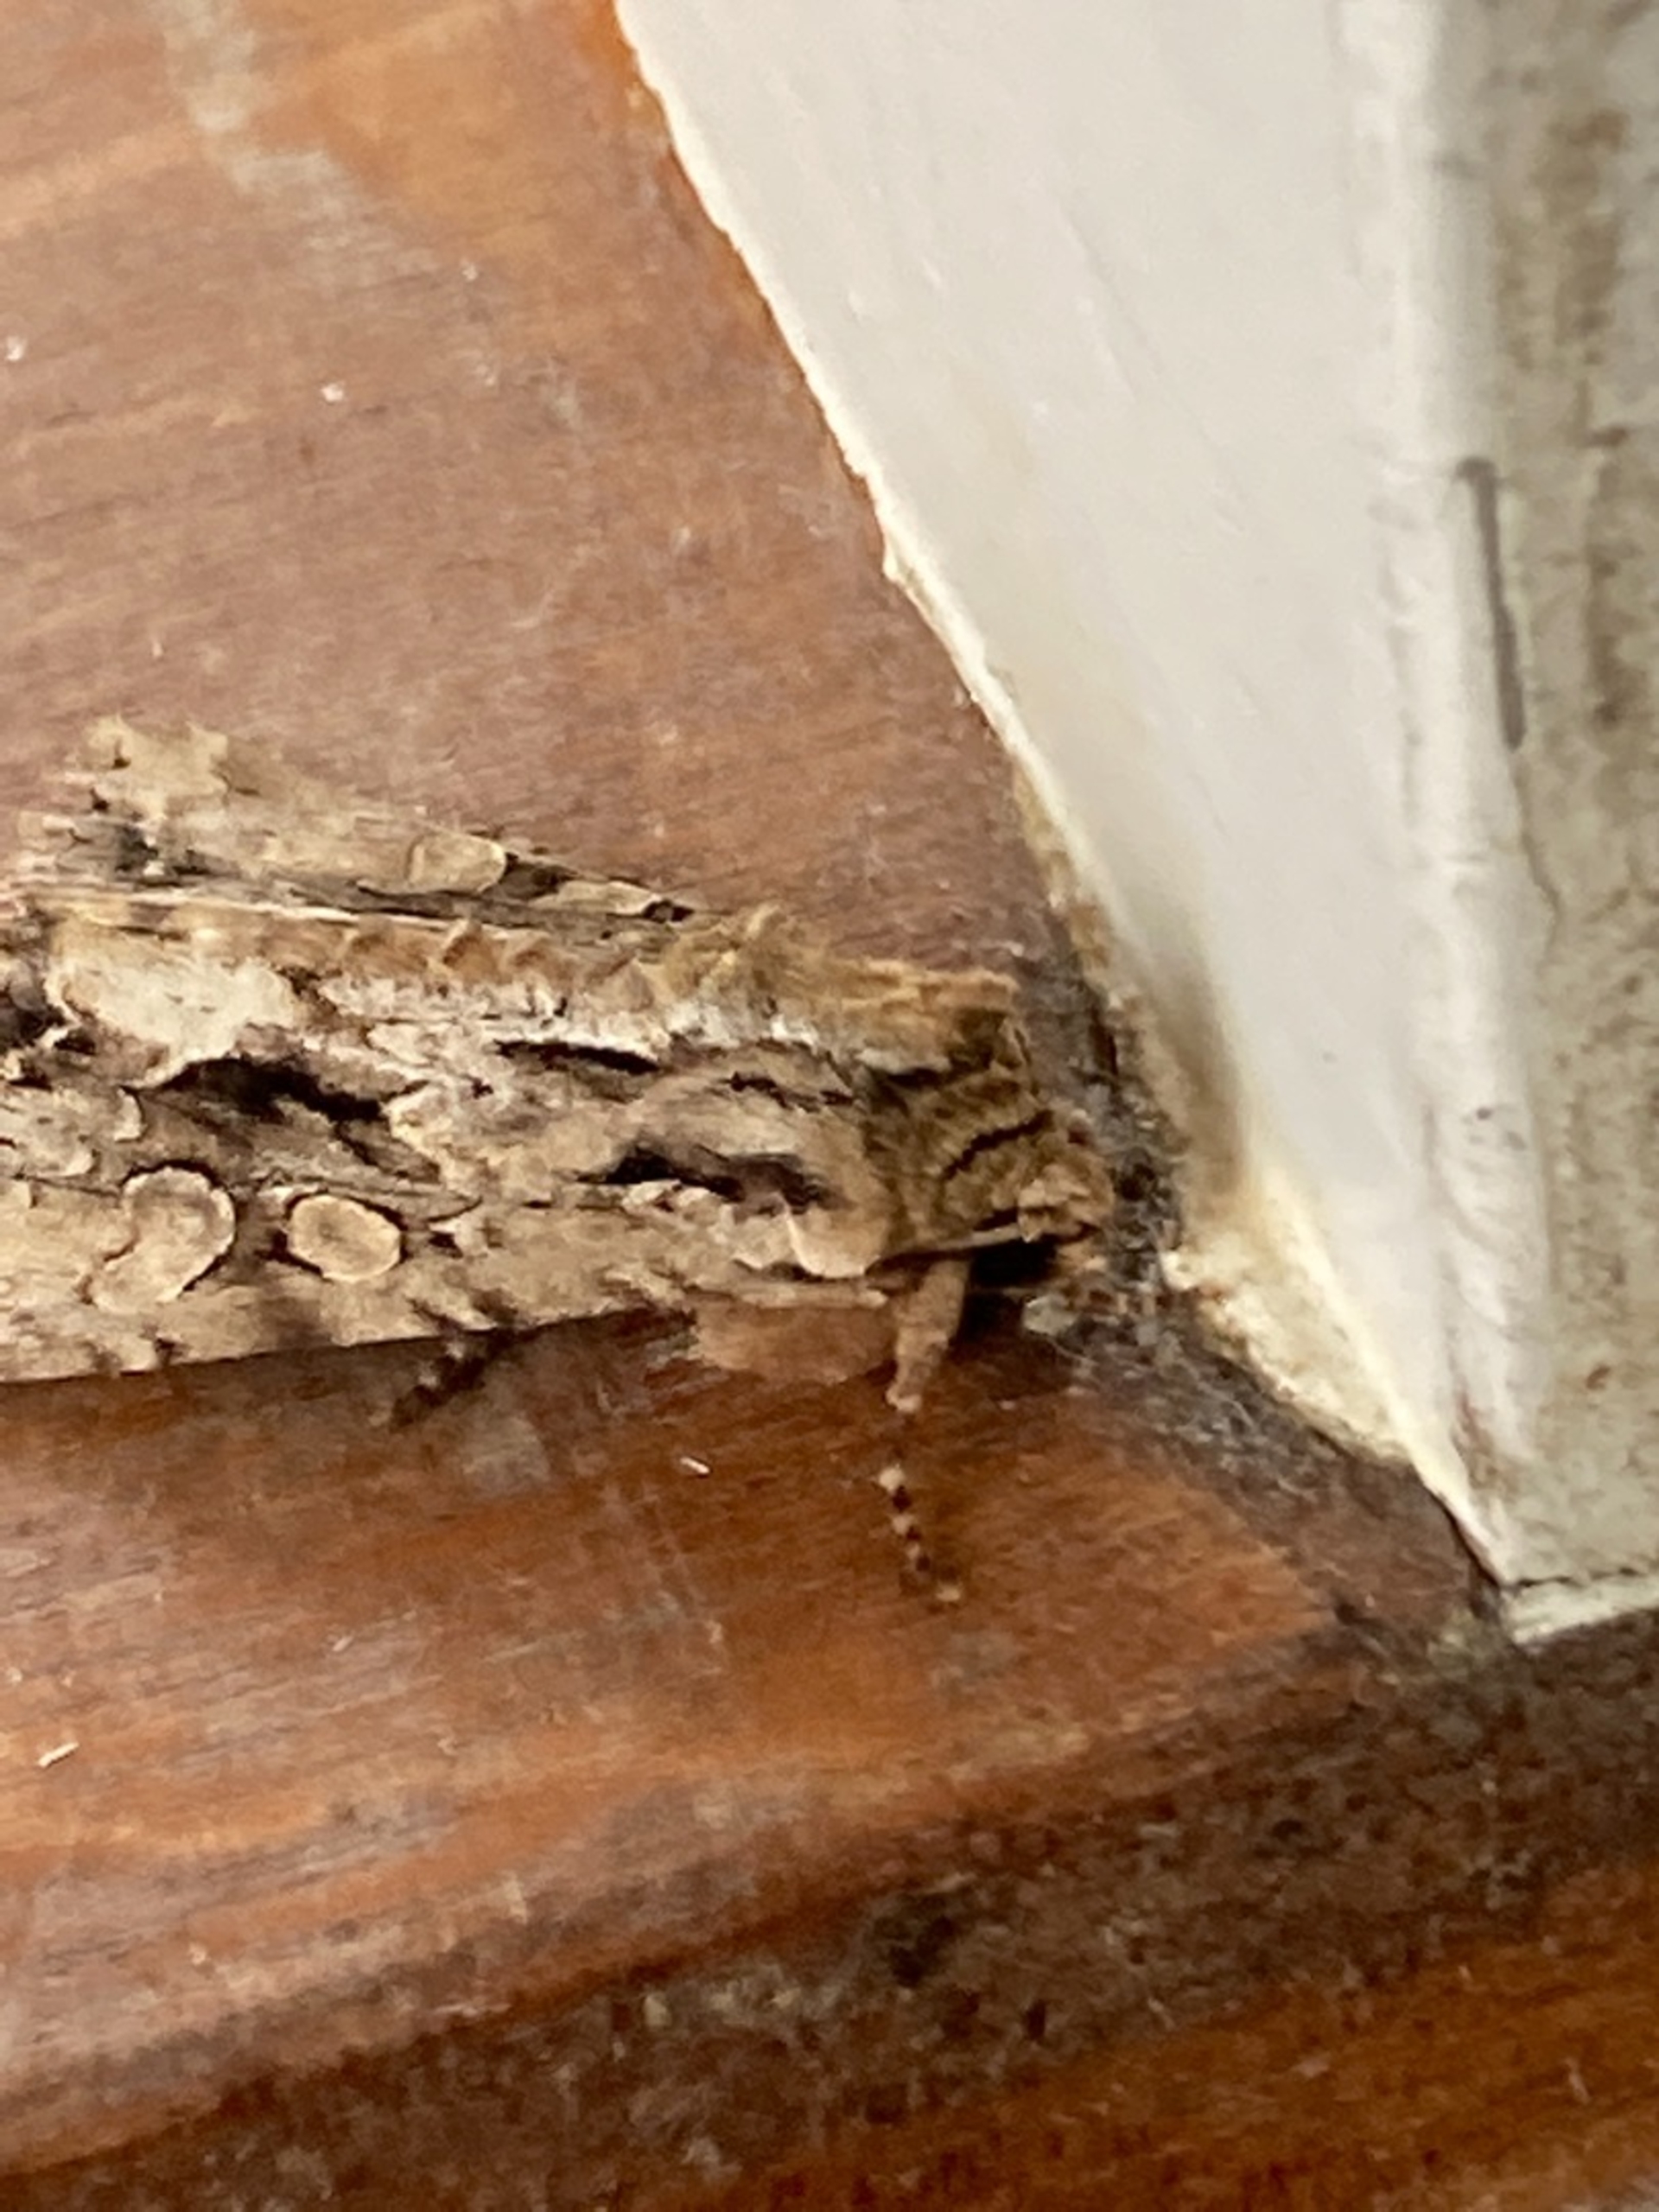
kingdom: Animalia
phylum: Arthropoda
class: Insecta
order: Lepidoptera
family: Noctuidae
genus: Apamea
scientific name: Apamea monoglypha
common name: Jordugle
